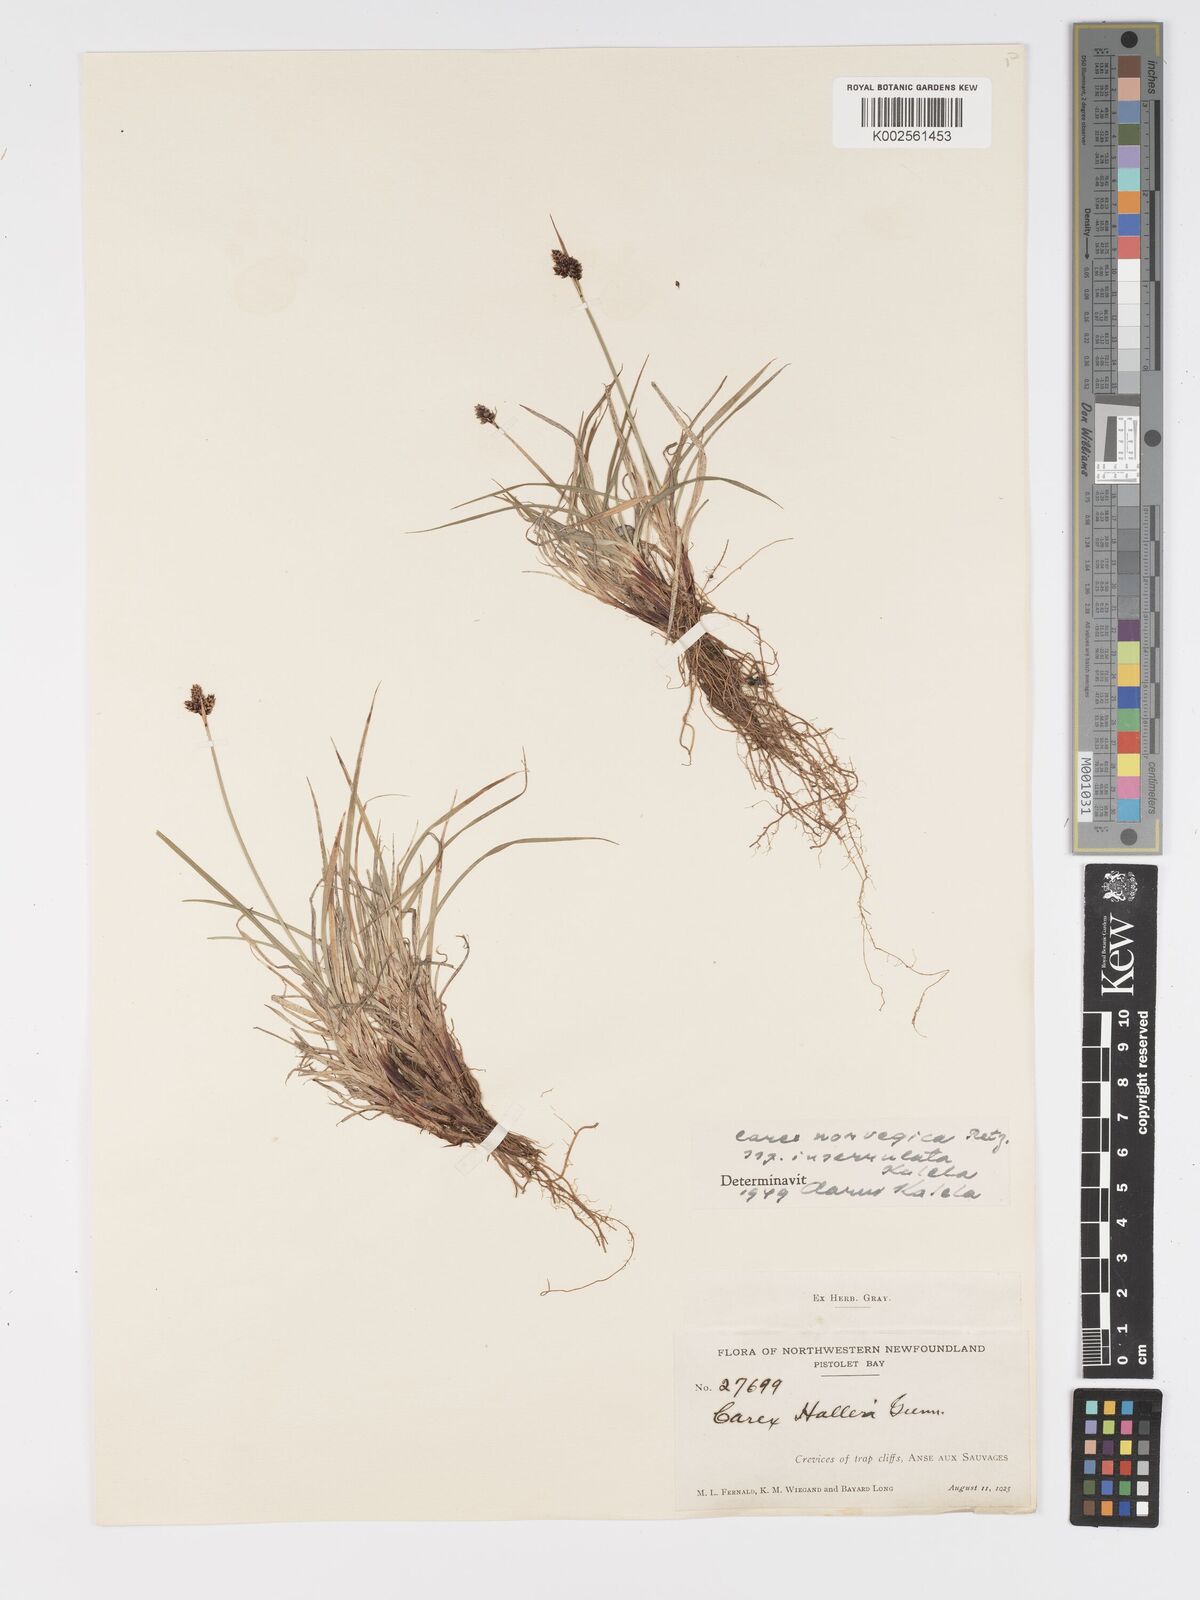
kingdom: Plantae
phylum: Tracheophyta
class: Liliopsida
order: Poales
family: Cyperaceae
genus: Carex
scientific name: Carex norvegica
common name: Close-headed alpine-sedge
